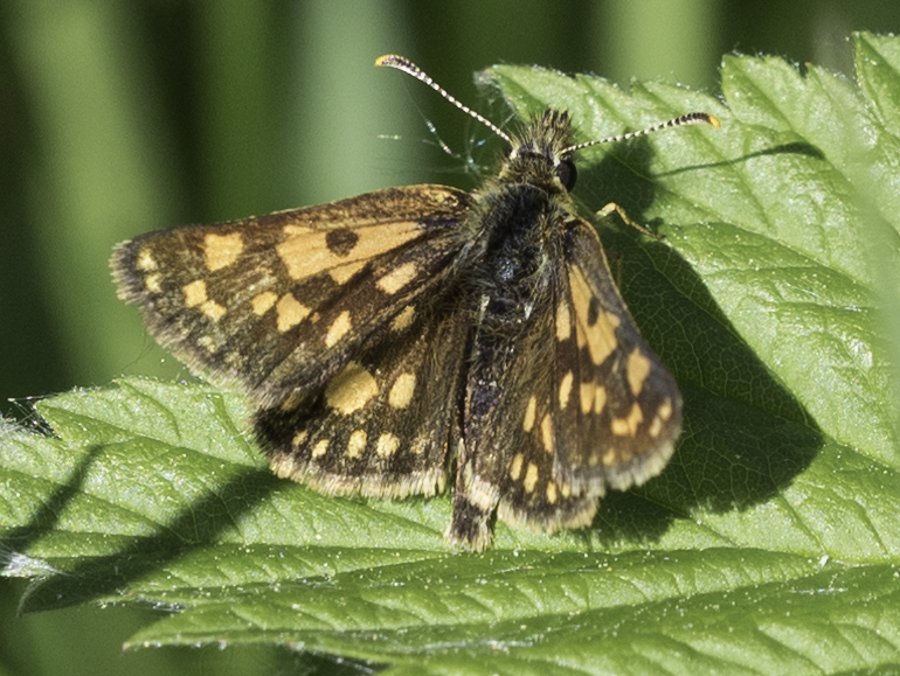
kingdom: Animalia
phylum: Arthropoda
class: Insecta
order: Lepidoptera
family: Hesperiidae
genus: Carterocephalus
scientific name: Carterocephalus palaemon
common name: Chequered Skipper
